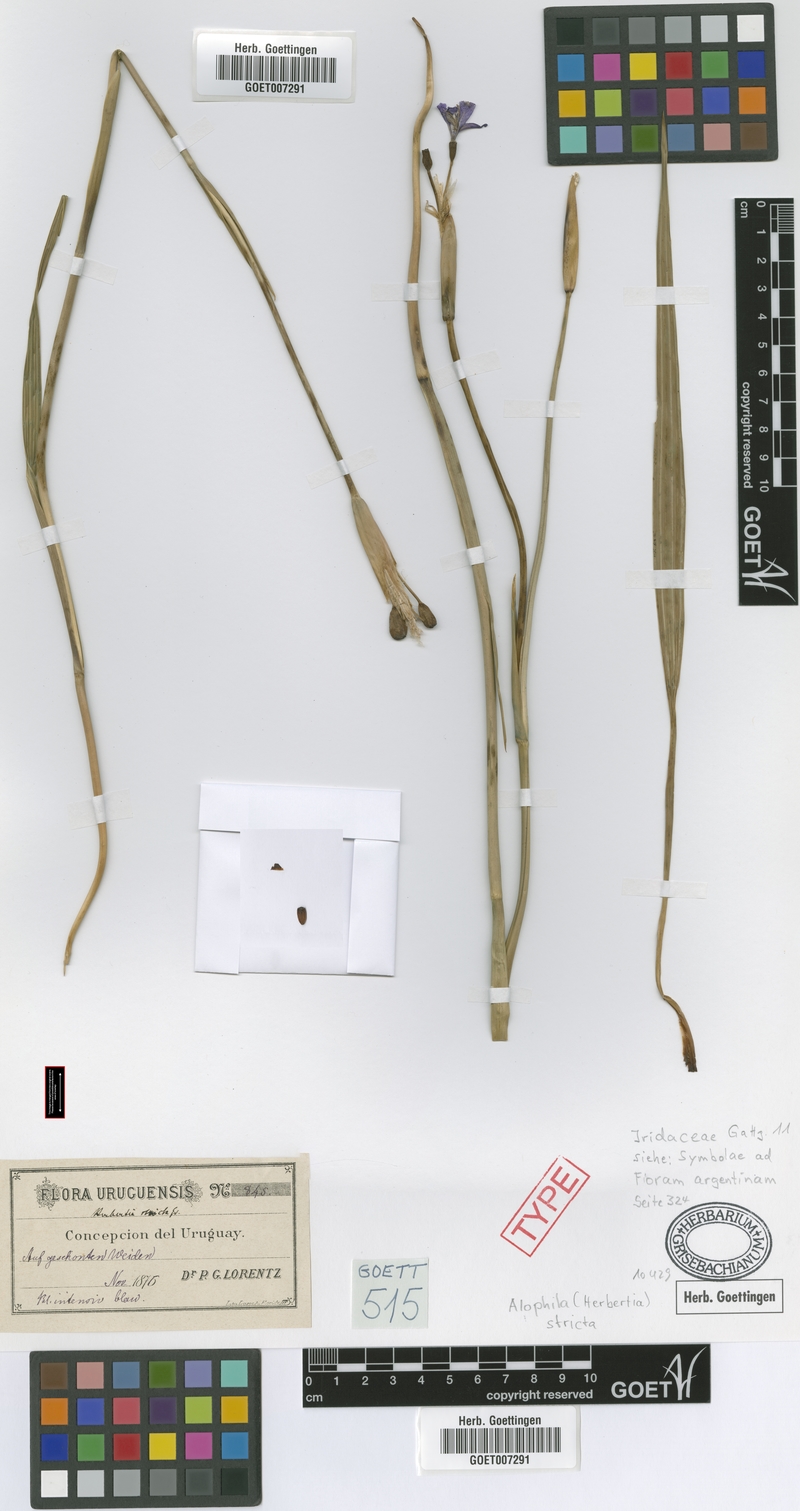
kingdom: Plantae
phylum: Tracheophyta
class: Liliopsida
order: Asparagales
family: Iridaceae
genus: Gelasine
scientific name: Gelasine elongata
